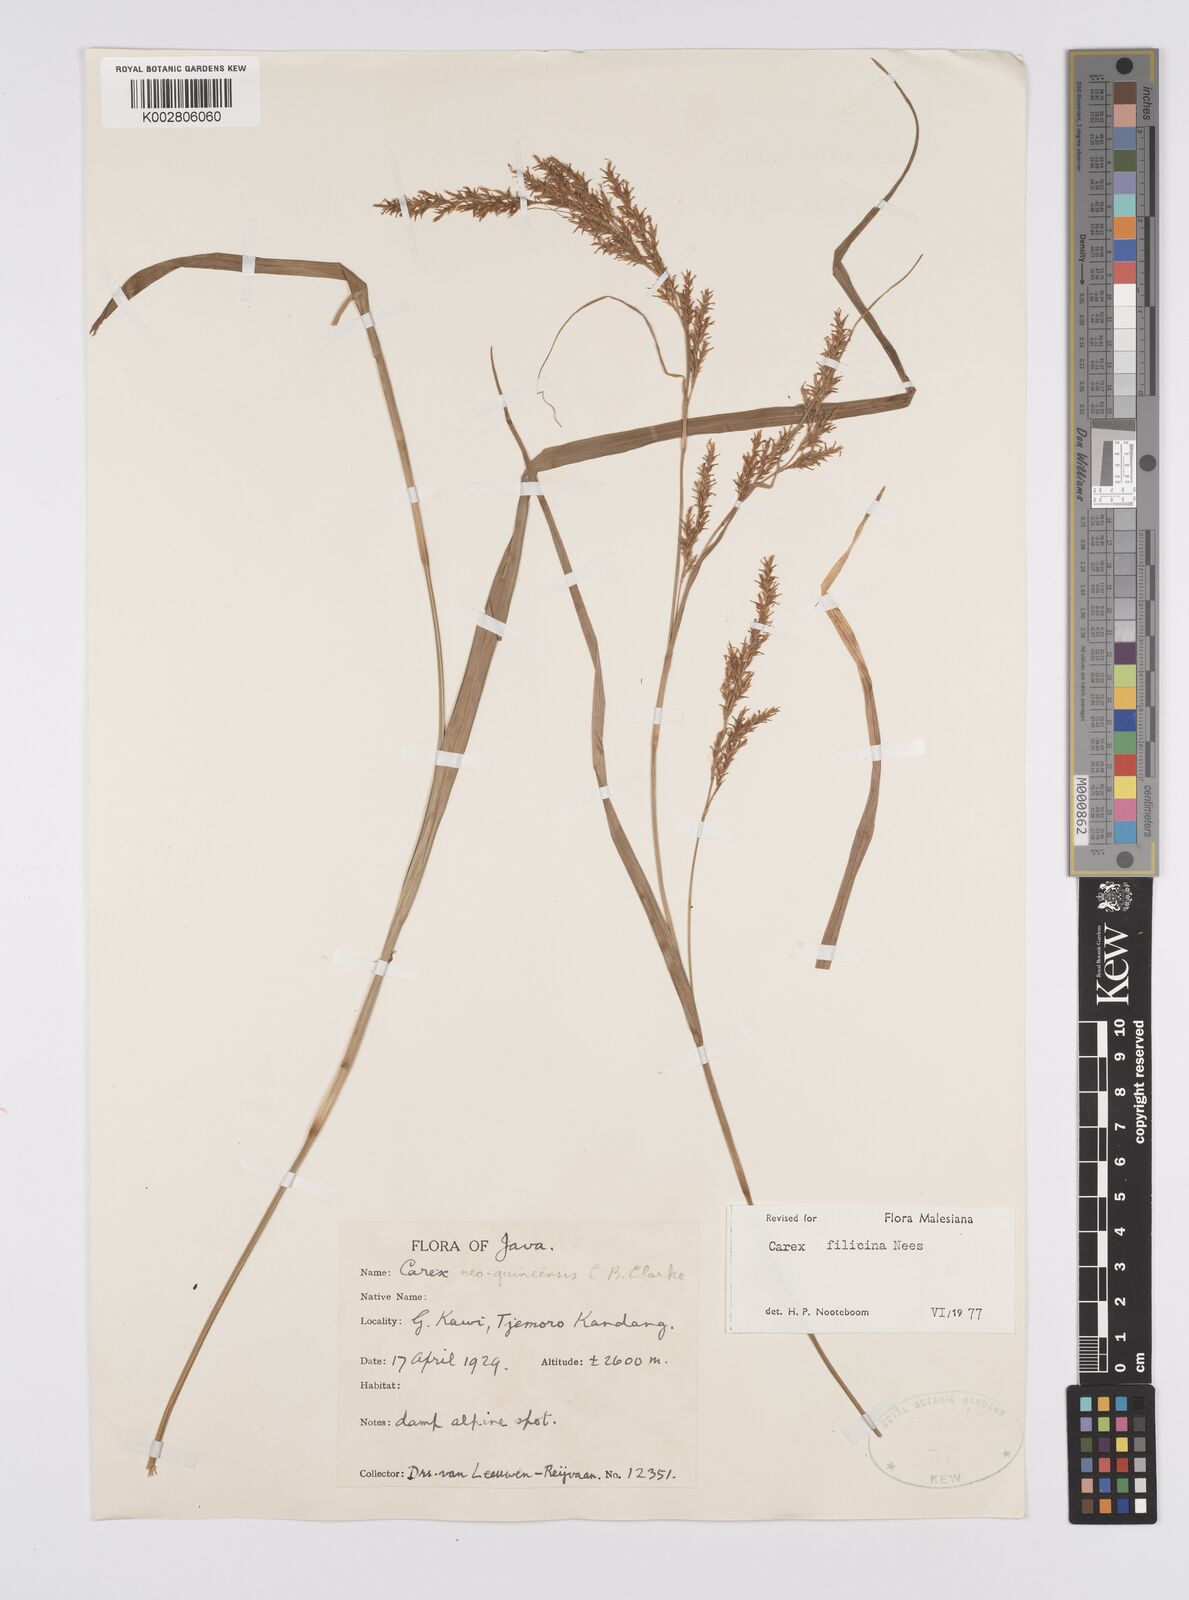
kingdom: Plantae
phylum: Tracheophyta
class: Liliopsida
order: Poales
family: Cyperaceae
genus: Carex
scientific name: Carex filicina
